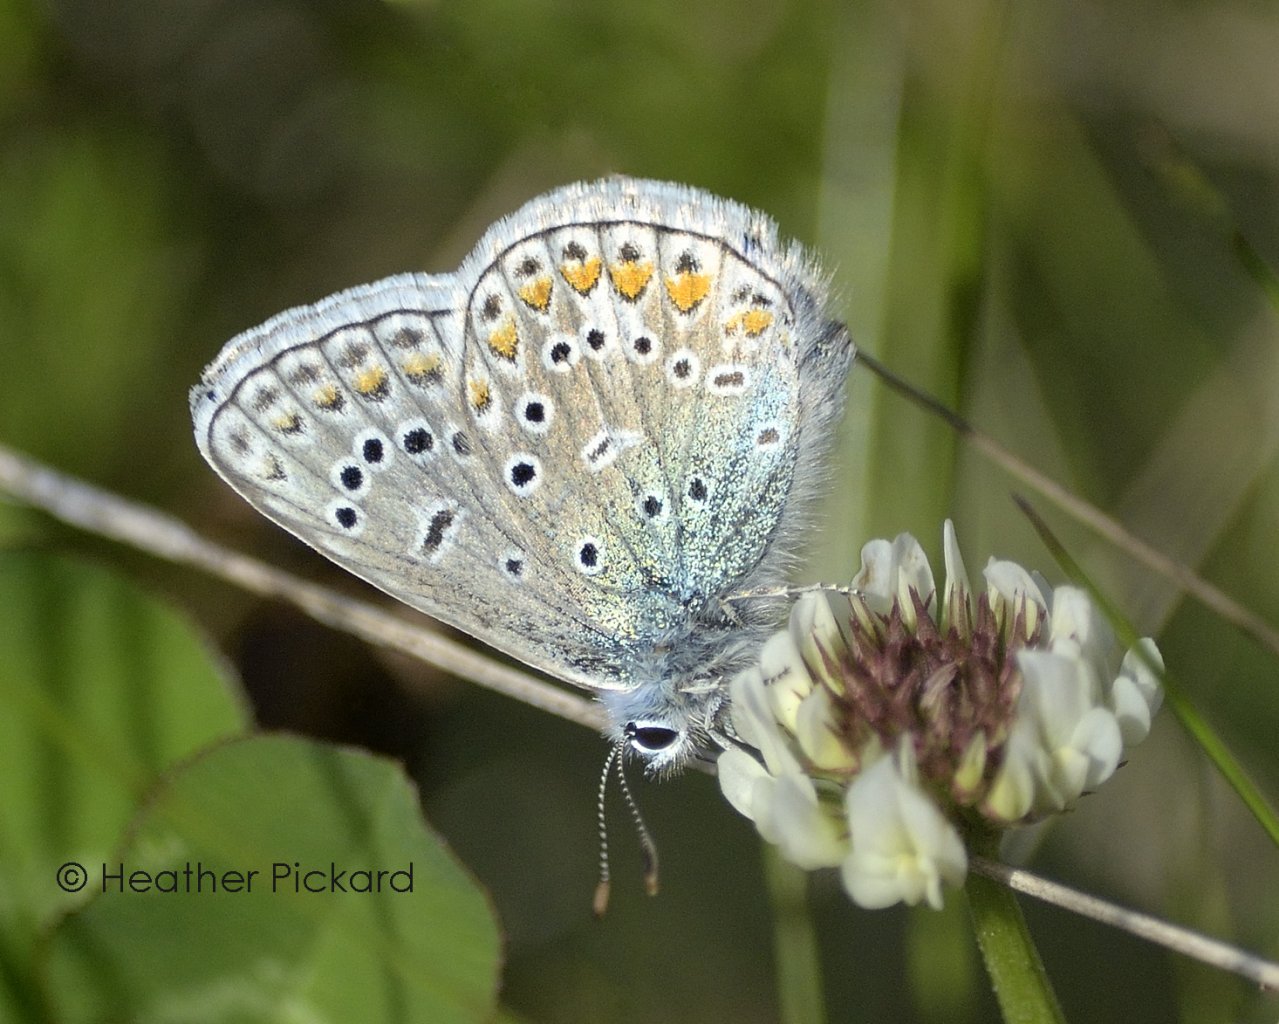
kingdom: Animalia
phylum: Arthropoda
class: Insecta
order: Lepidoptera
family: Lycaenidae
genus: Polyommatus
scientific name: Polyommatus icarus
